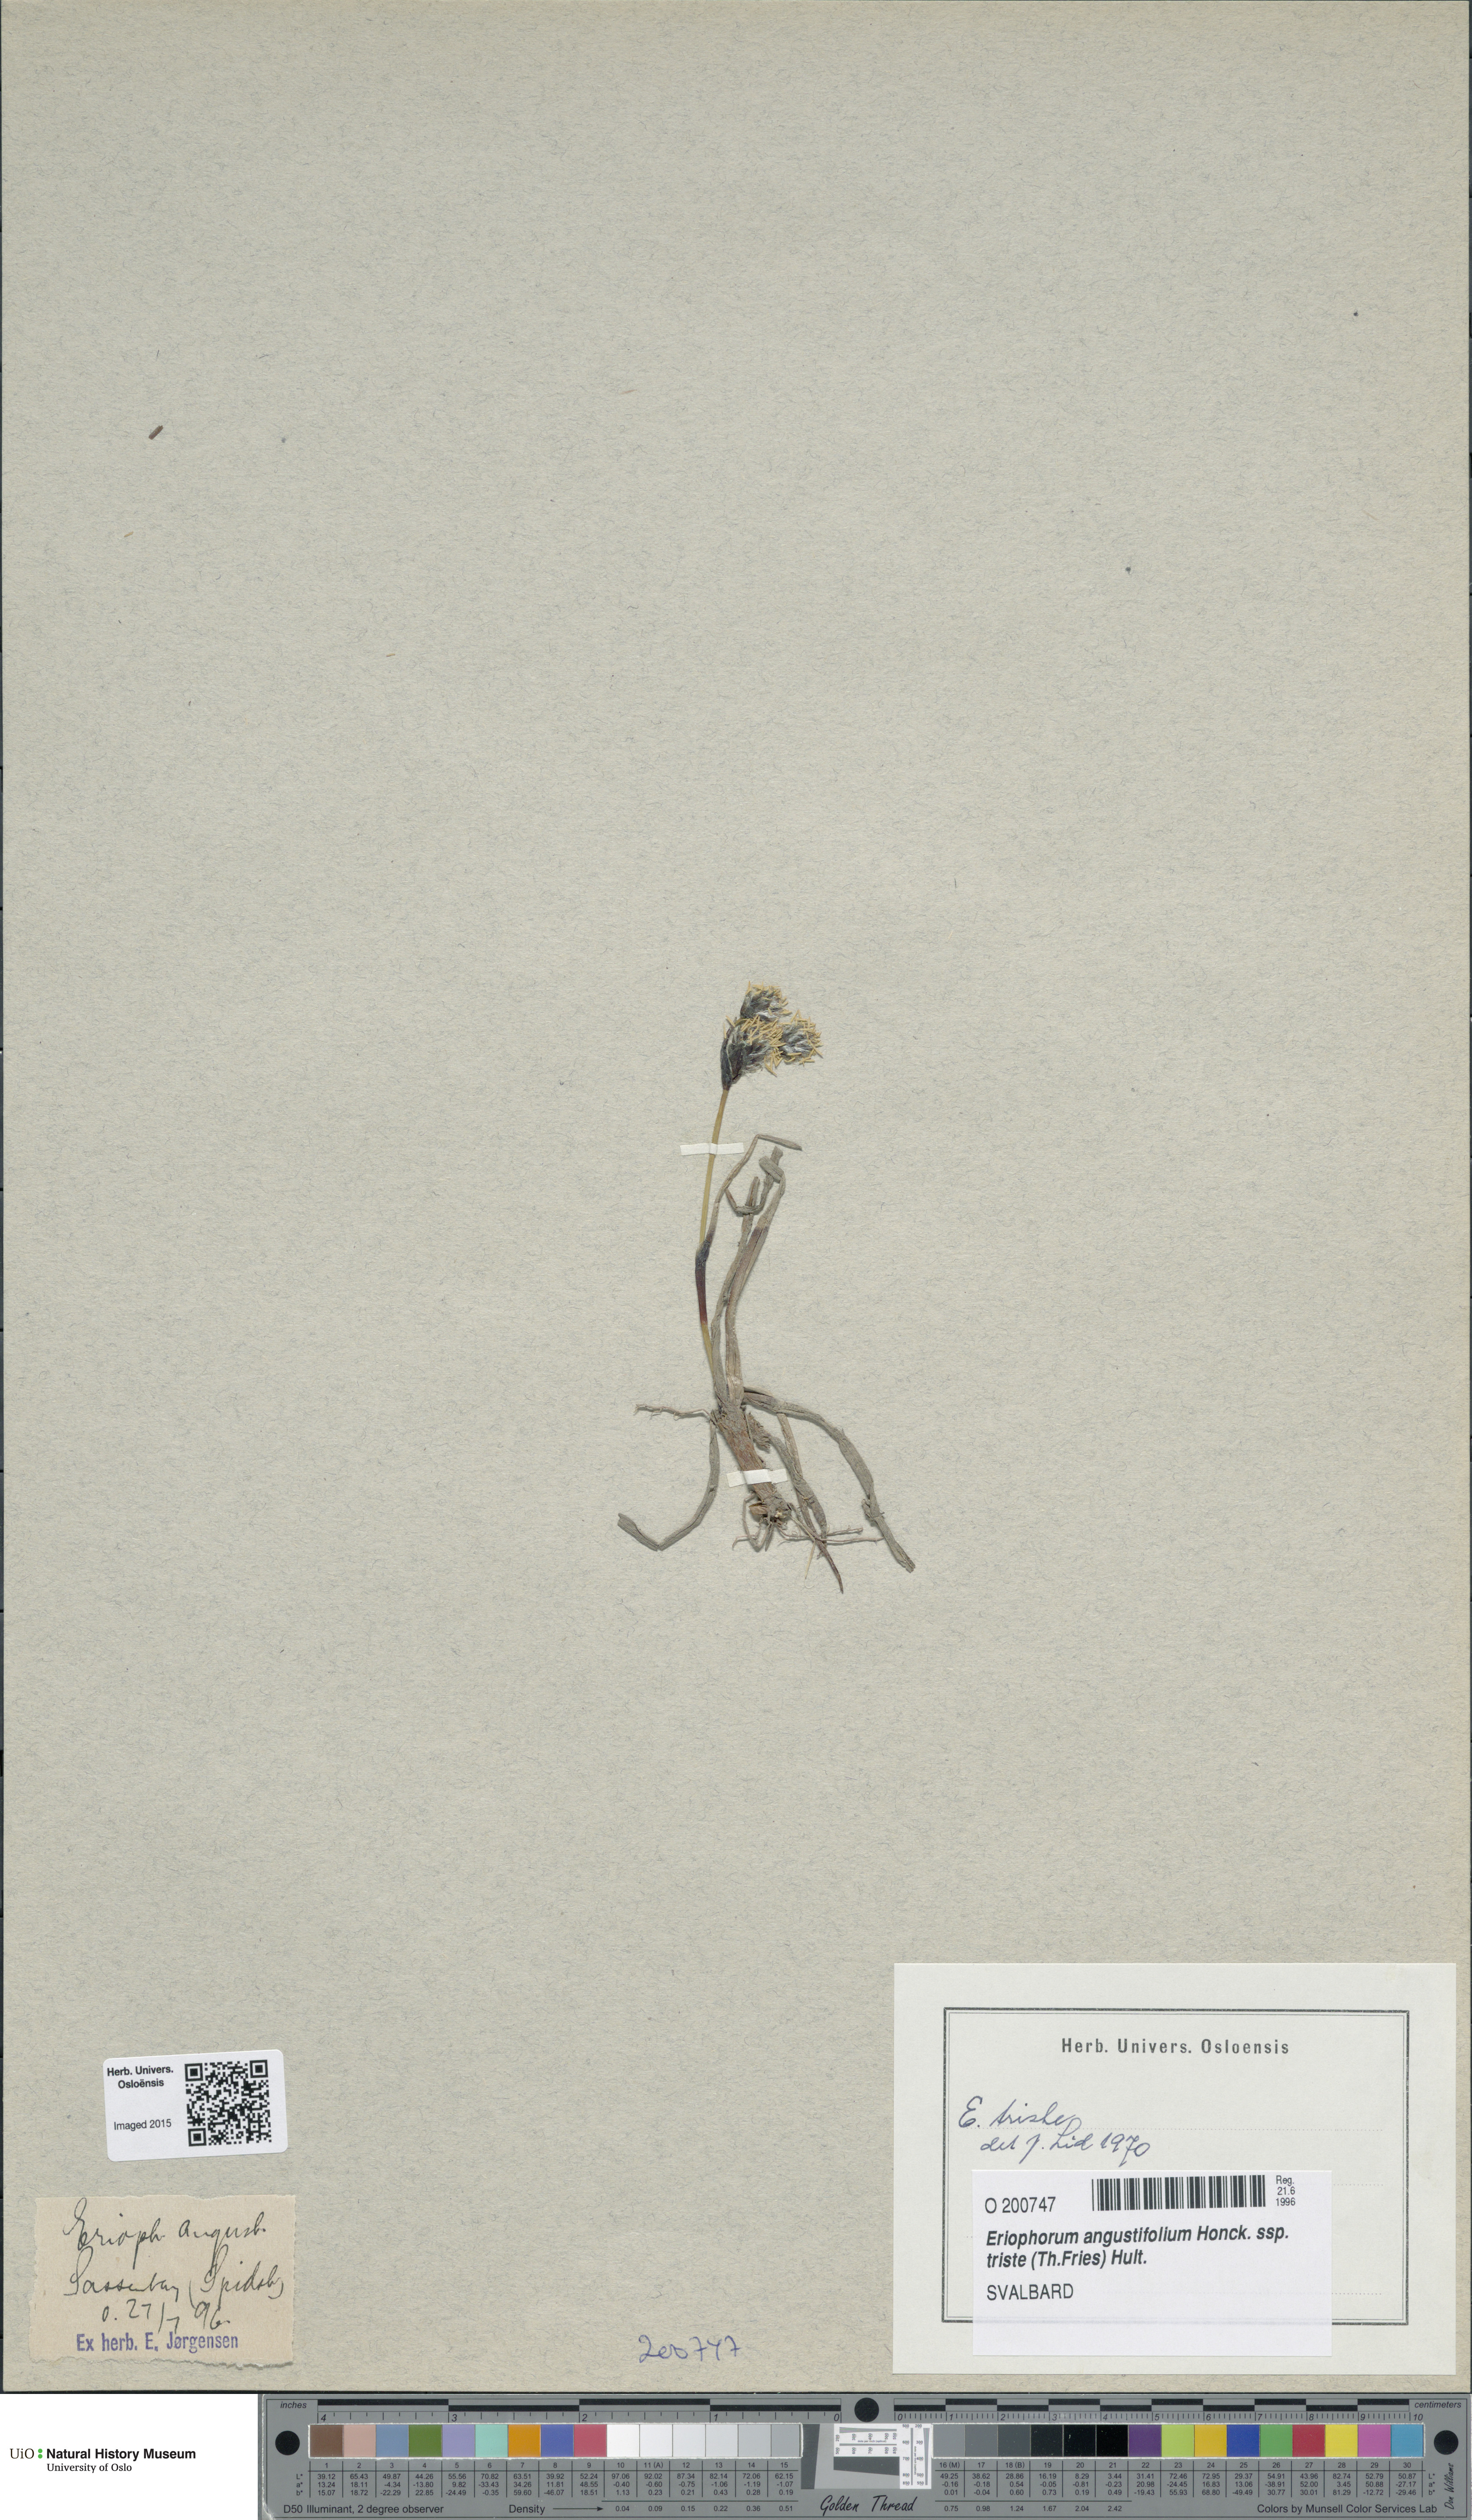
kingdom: Plantae
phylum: Tracheophyta
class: Liliopsida
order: Poales
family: Cyperaceae
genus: Eriophorum
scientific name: Eriophorum triste
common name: Tall cottongrass
